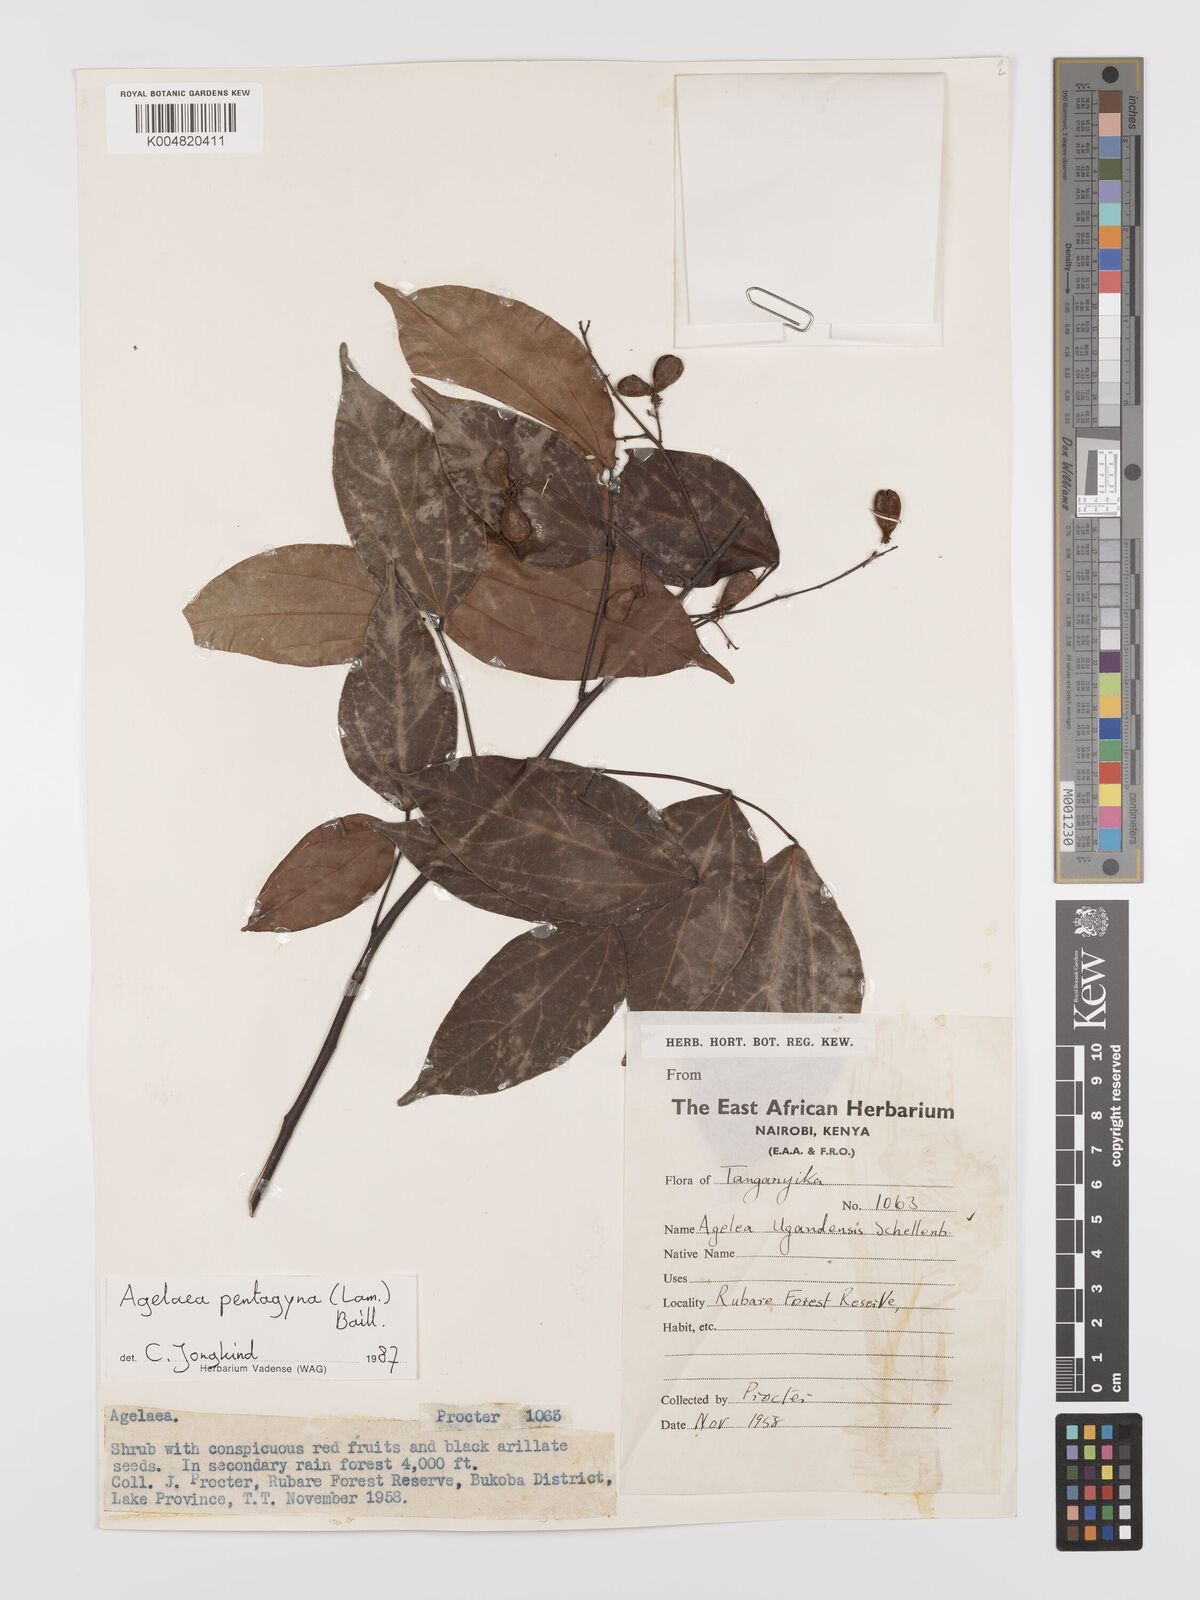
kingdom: Plantae
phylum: Tracheophyta
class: Magnoliopsida
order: Oxalidales
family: Connaraceae
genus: Agelaea
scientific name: Agelaea pentagyna
